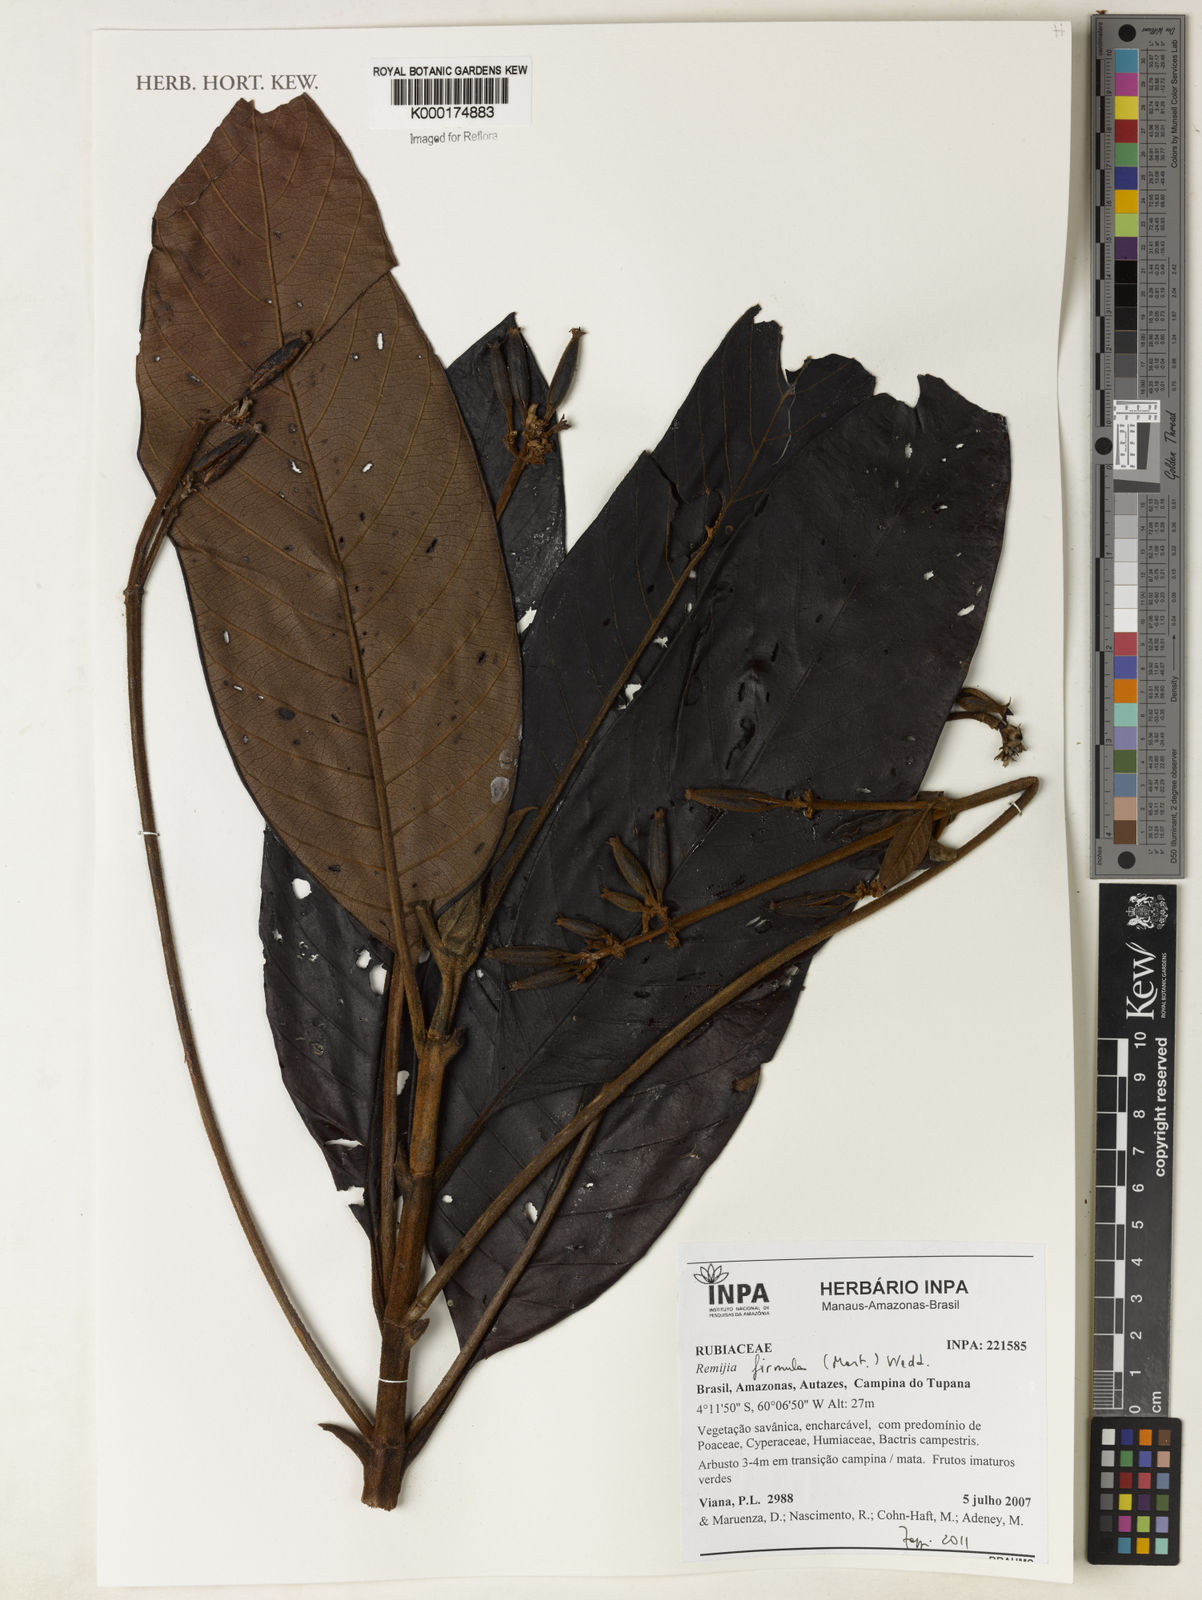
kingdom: Plantae
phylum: Tracheophyta
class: Magnoliopsida
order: Gentianales
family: Rubiaceae
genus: Remijia
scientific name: Remijia firmula
